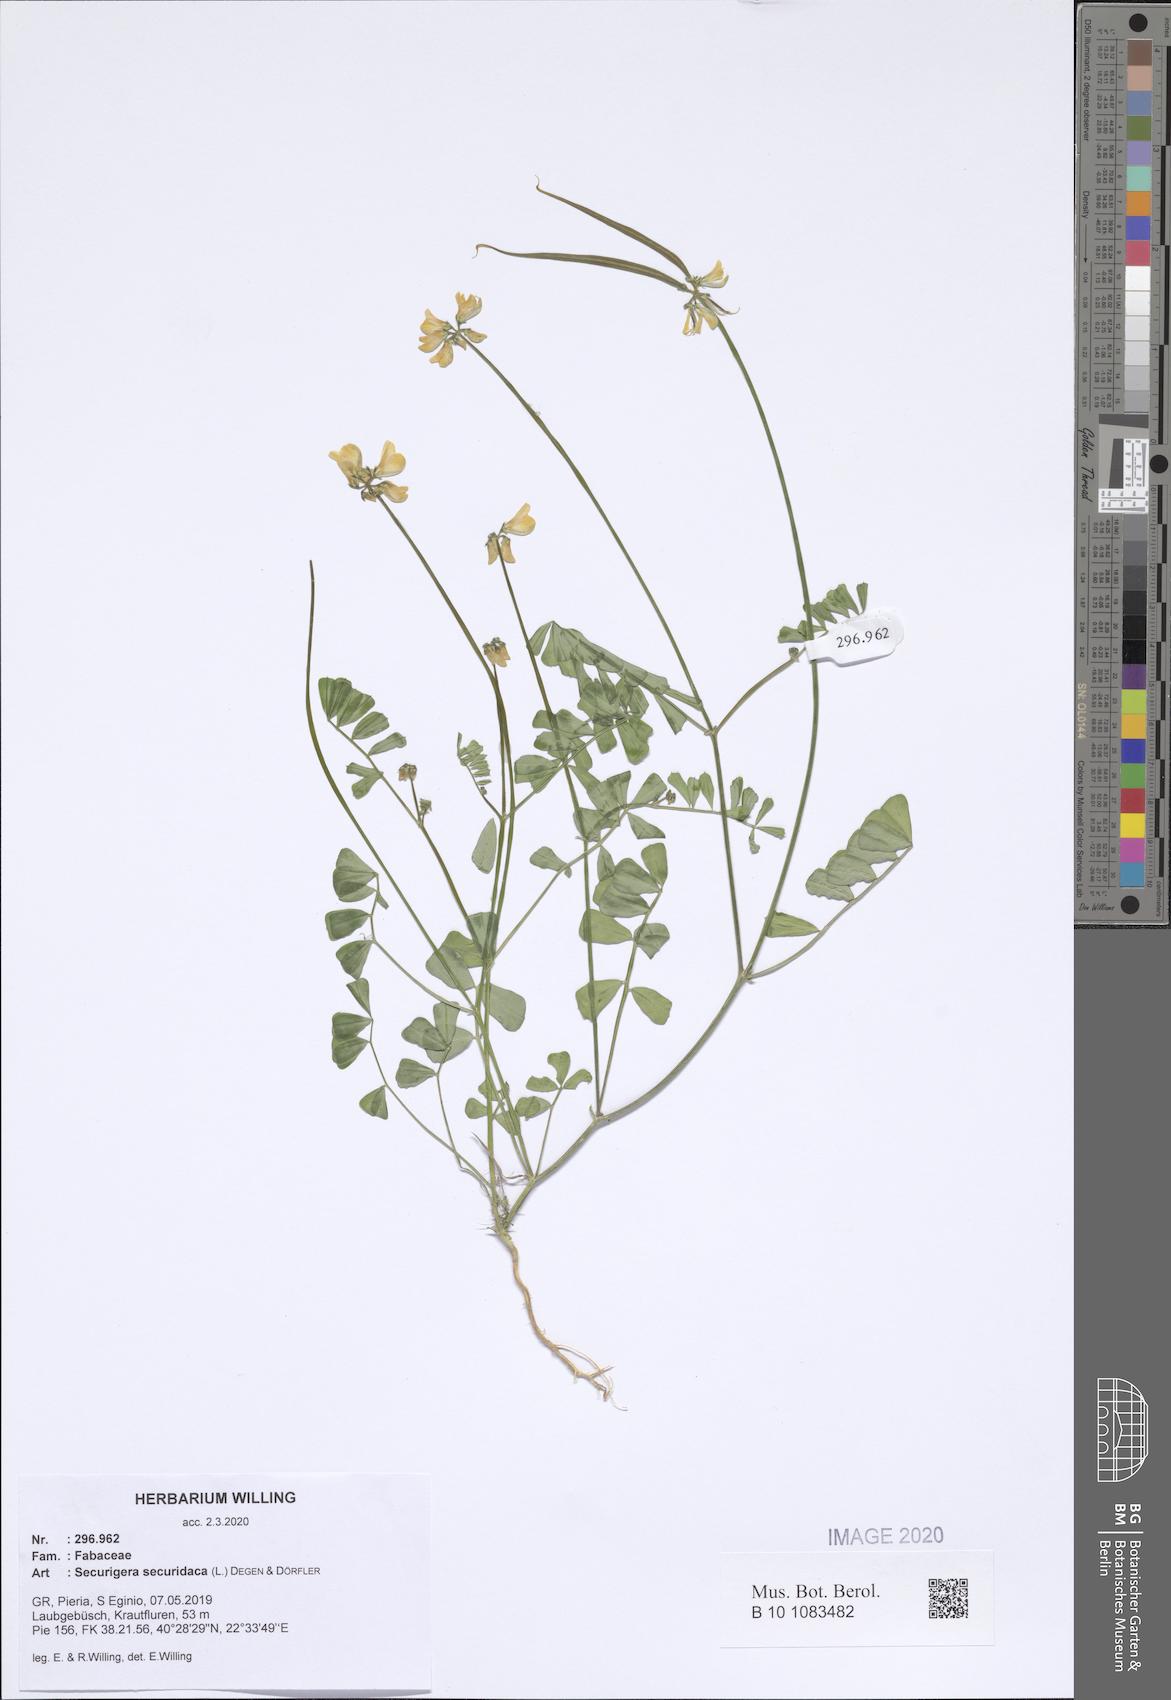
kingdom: Plantae
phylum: Tracheophyta
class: Magnoliopsida
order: Fabales
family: Fabaceae
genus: Coronilla
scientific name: Coronilla securidaca
